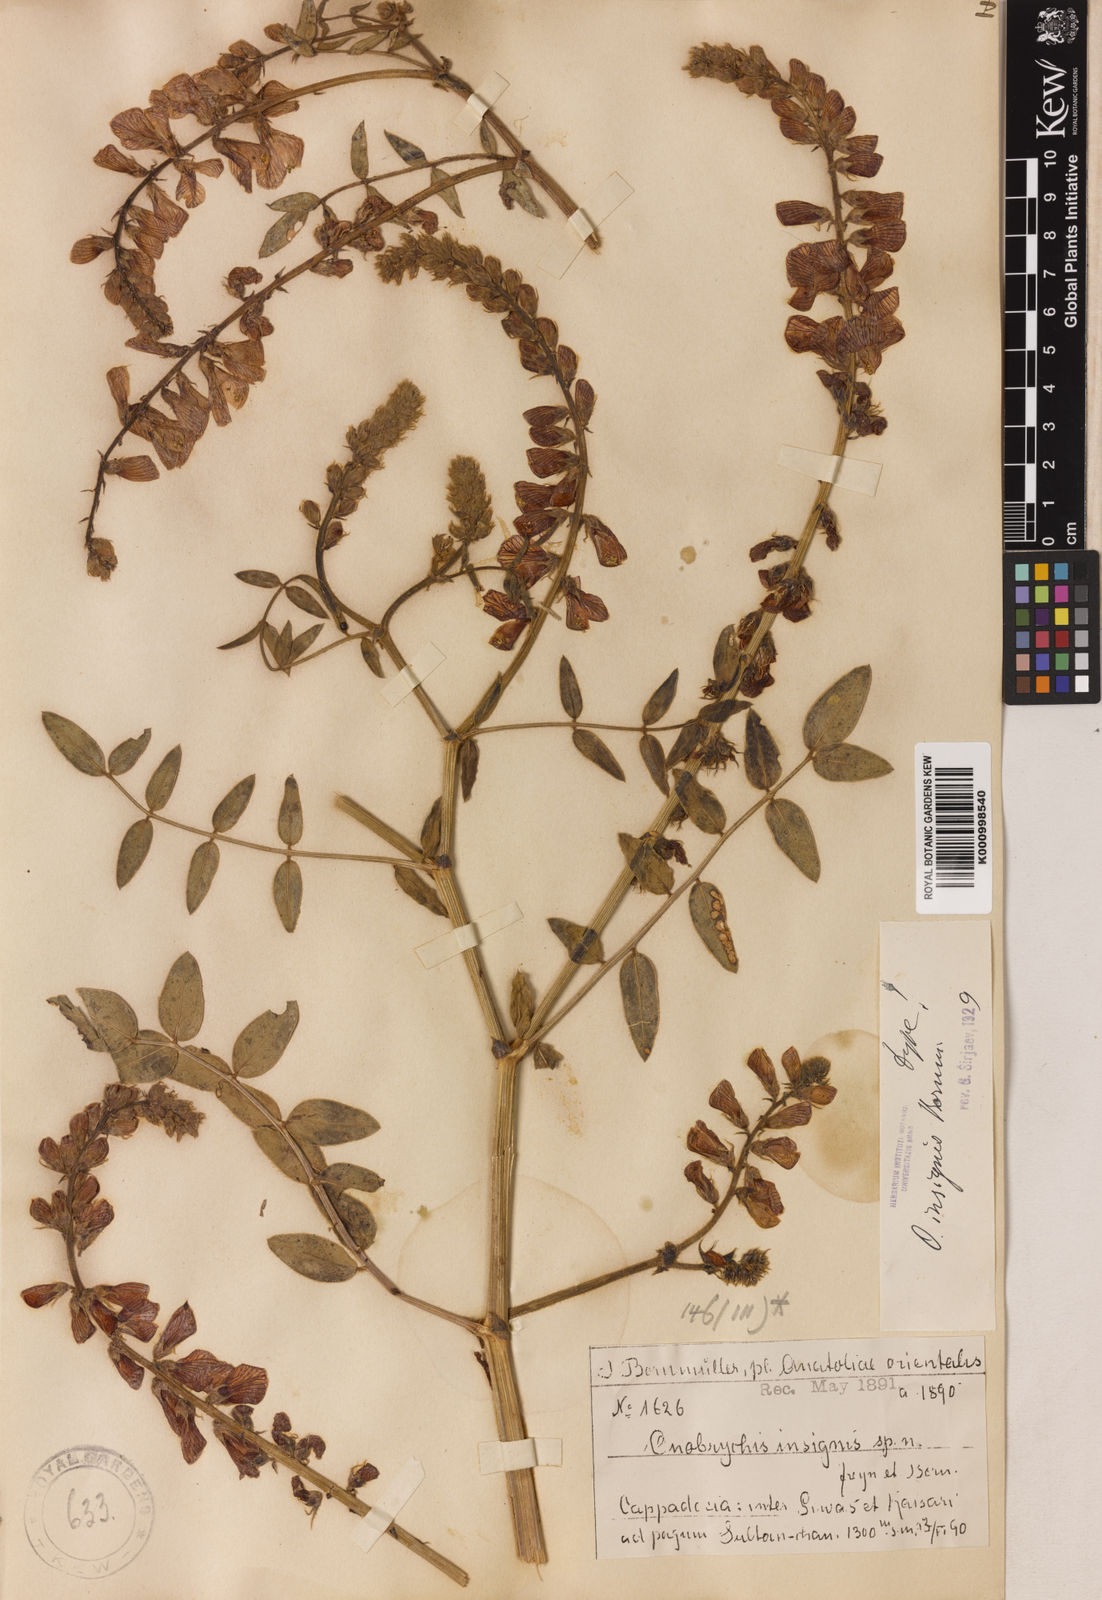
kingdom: Plantae
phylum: Tracheophyta
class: Magnoliopsida
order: Fabales
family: Fabaceae
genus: Onobrychis
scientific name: Onobrychis pallasii
